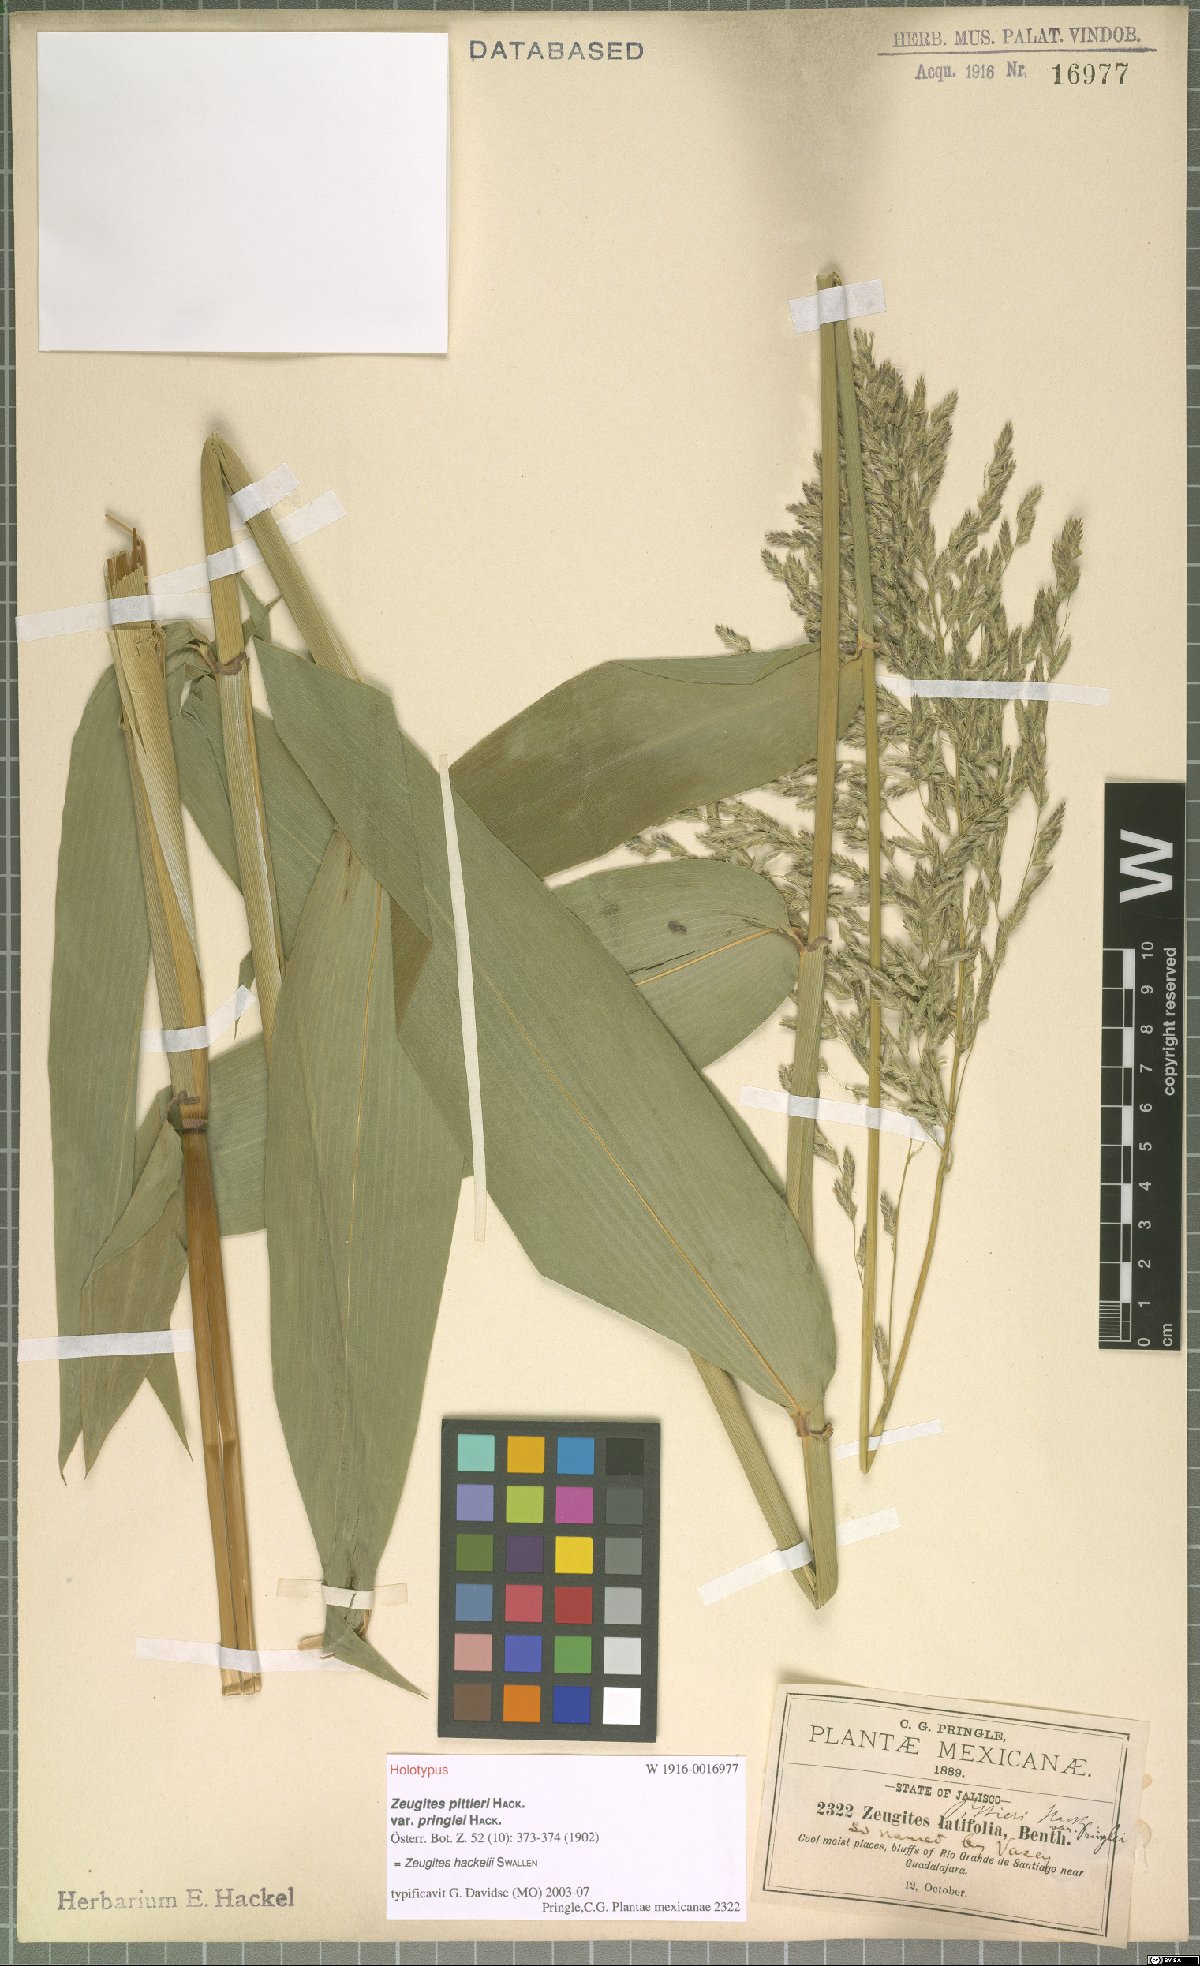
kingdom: Plantae
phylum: Tracheophyta
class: Liliopsida
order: Poales
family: Poaceae
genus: Zeugites
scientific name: Zeugites hackelii
